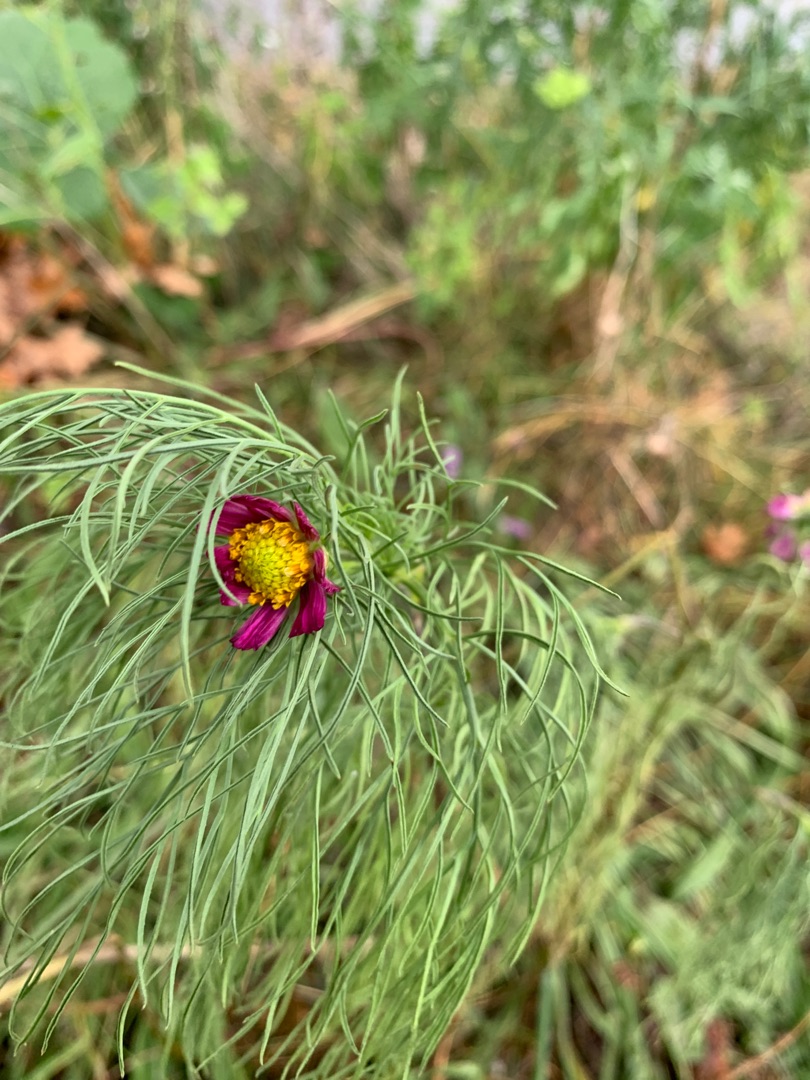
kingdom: Plantae
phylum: Tracheophyta
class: Magnoliopsida
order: Asterales
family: Asteraceae
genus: Cosmos
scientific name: Cosmos bipinnatus
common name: Stolt kavaler
